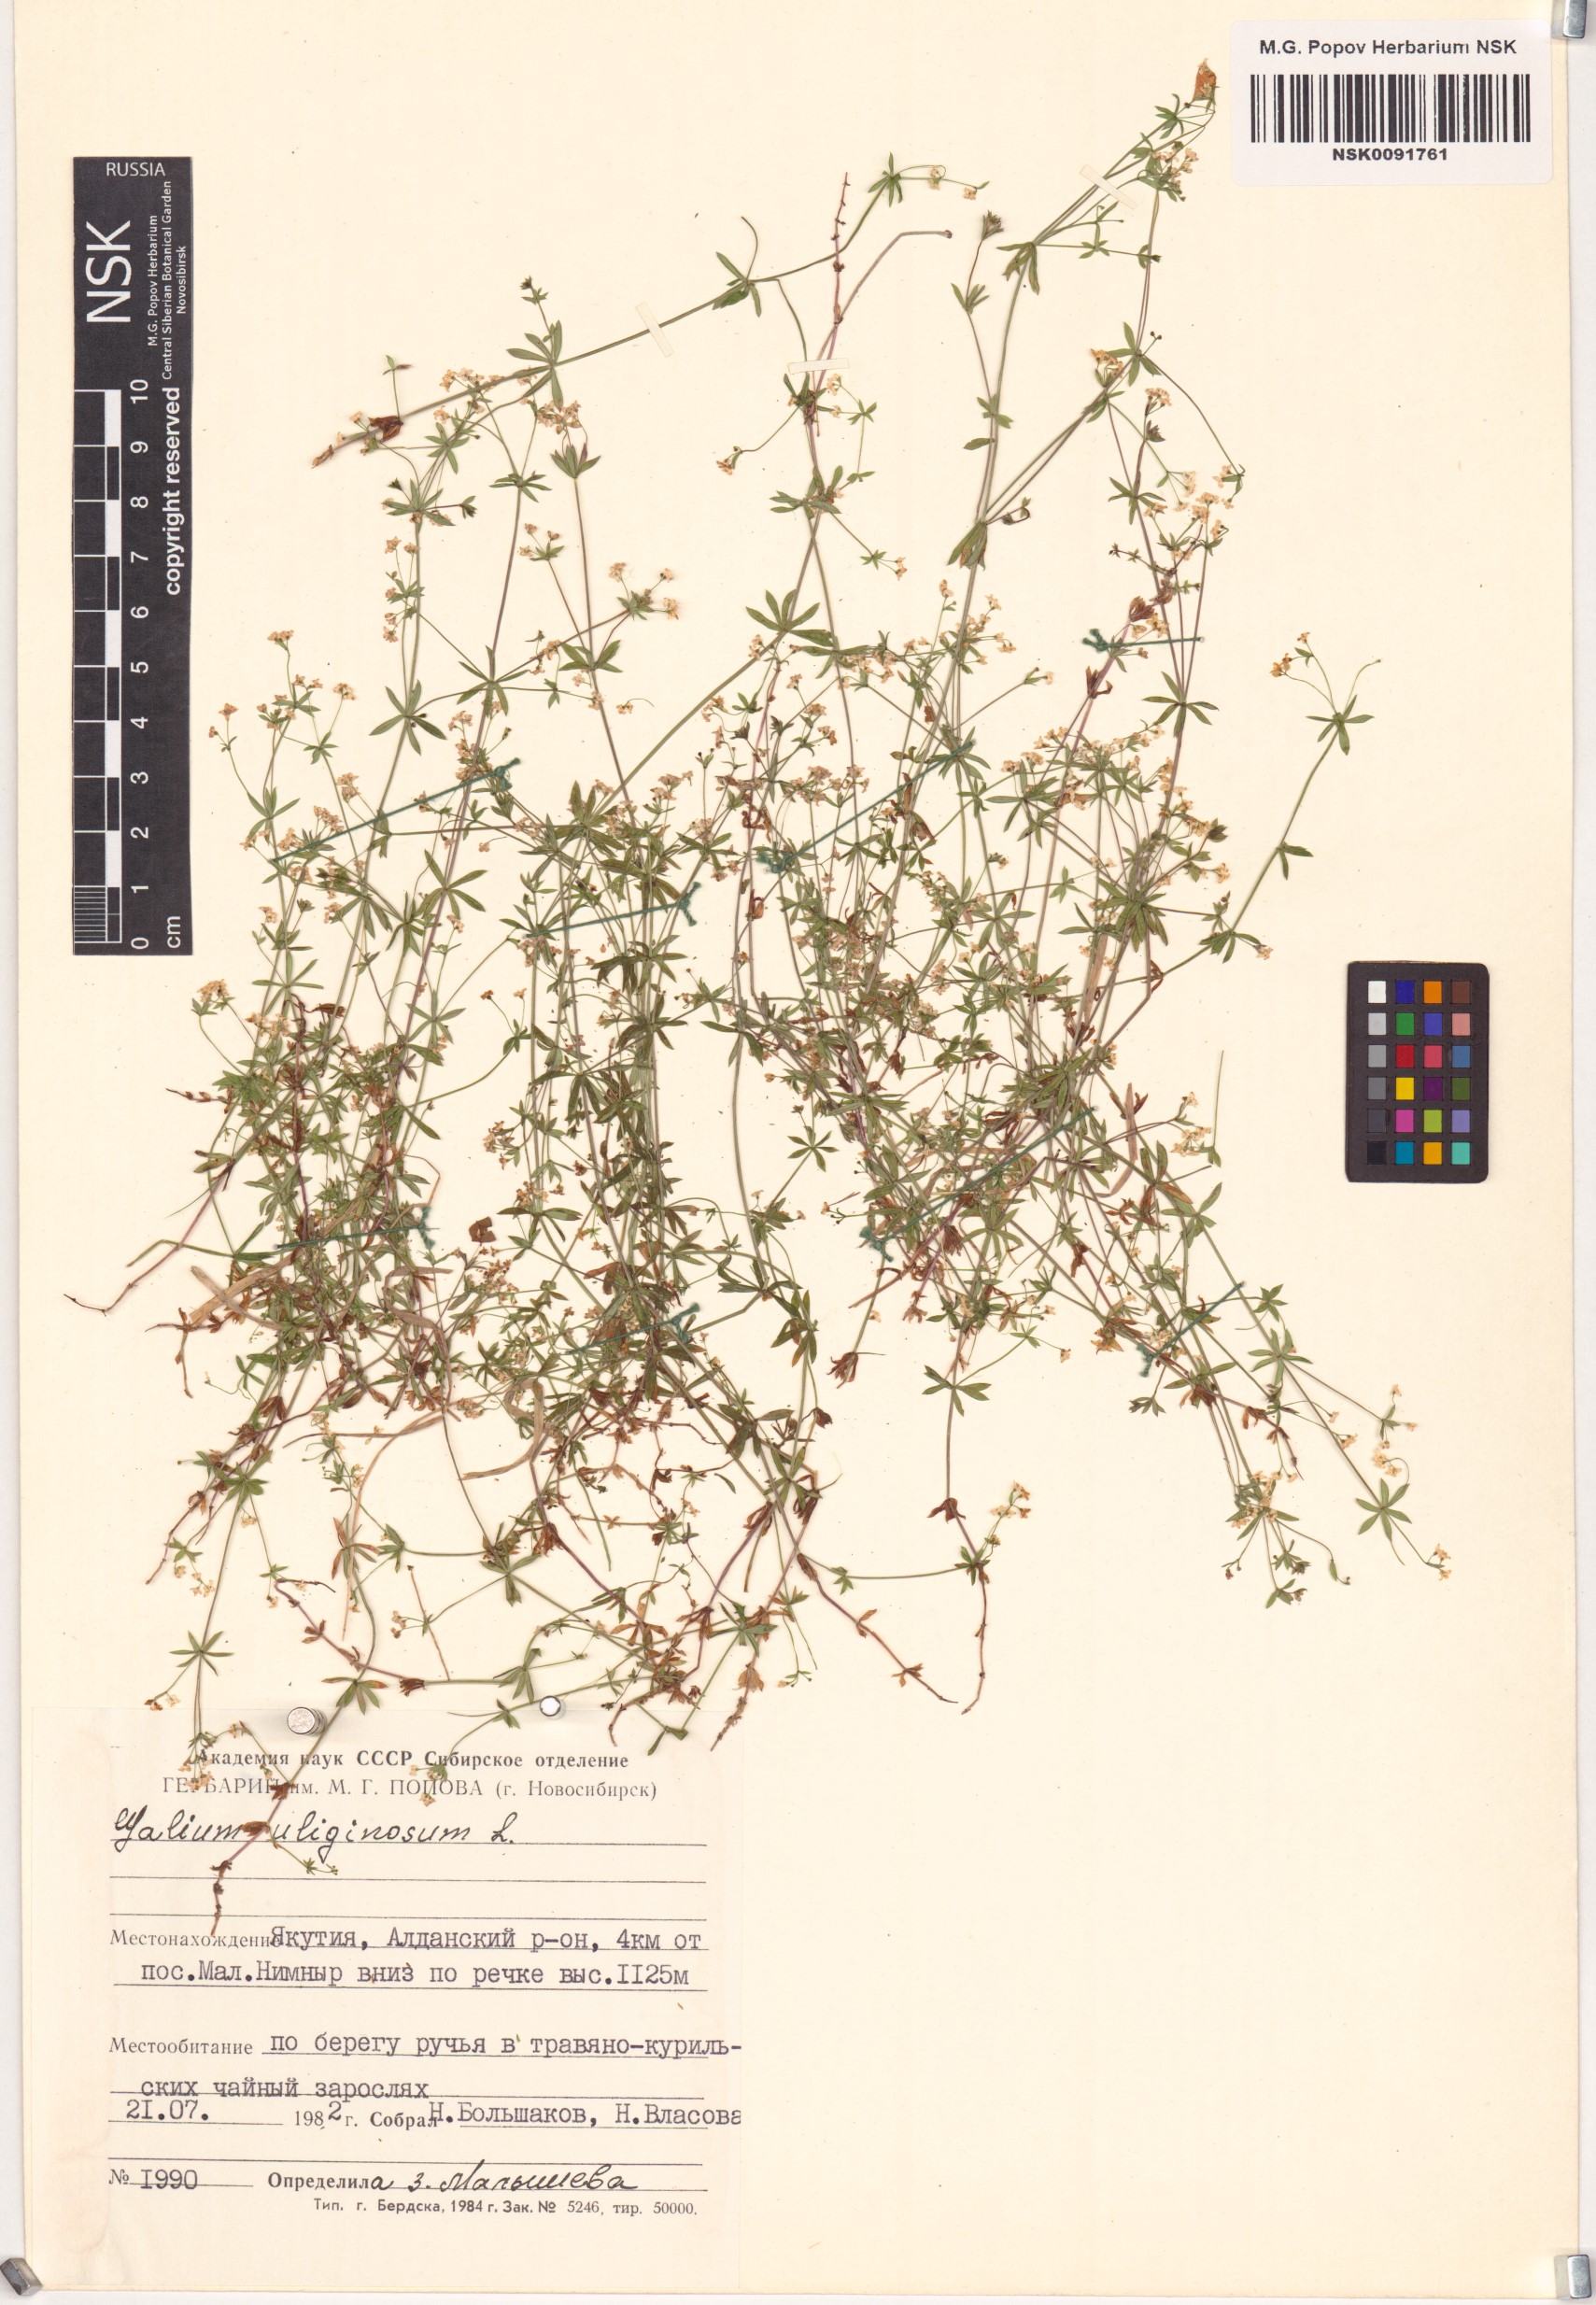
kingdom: Plantae
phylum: Tracheophyta
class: Magnoliopsida
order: Gentianales
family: Rubiaceae
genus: Galium
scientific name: Galium uliginosum
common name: Fen bedstraw
